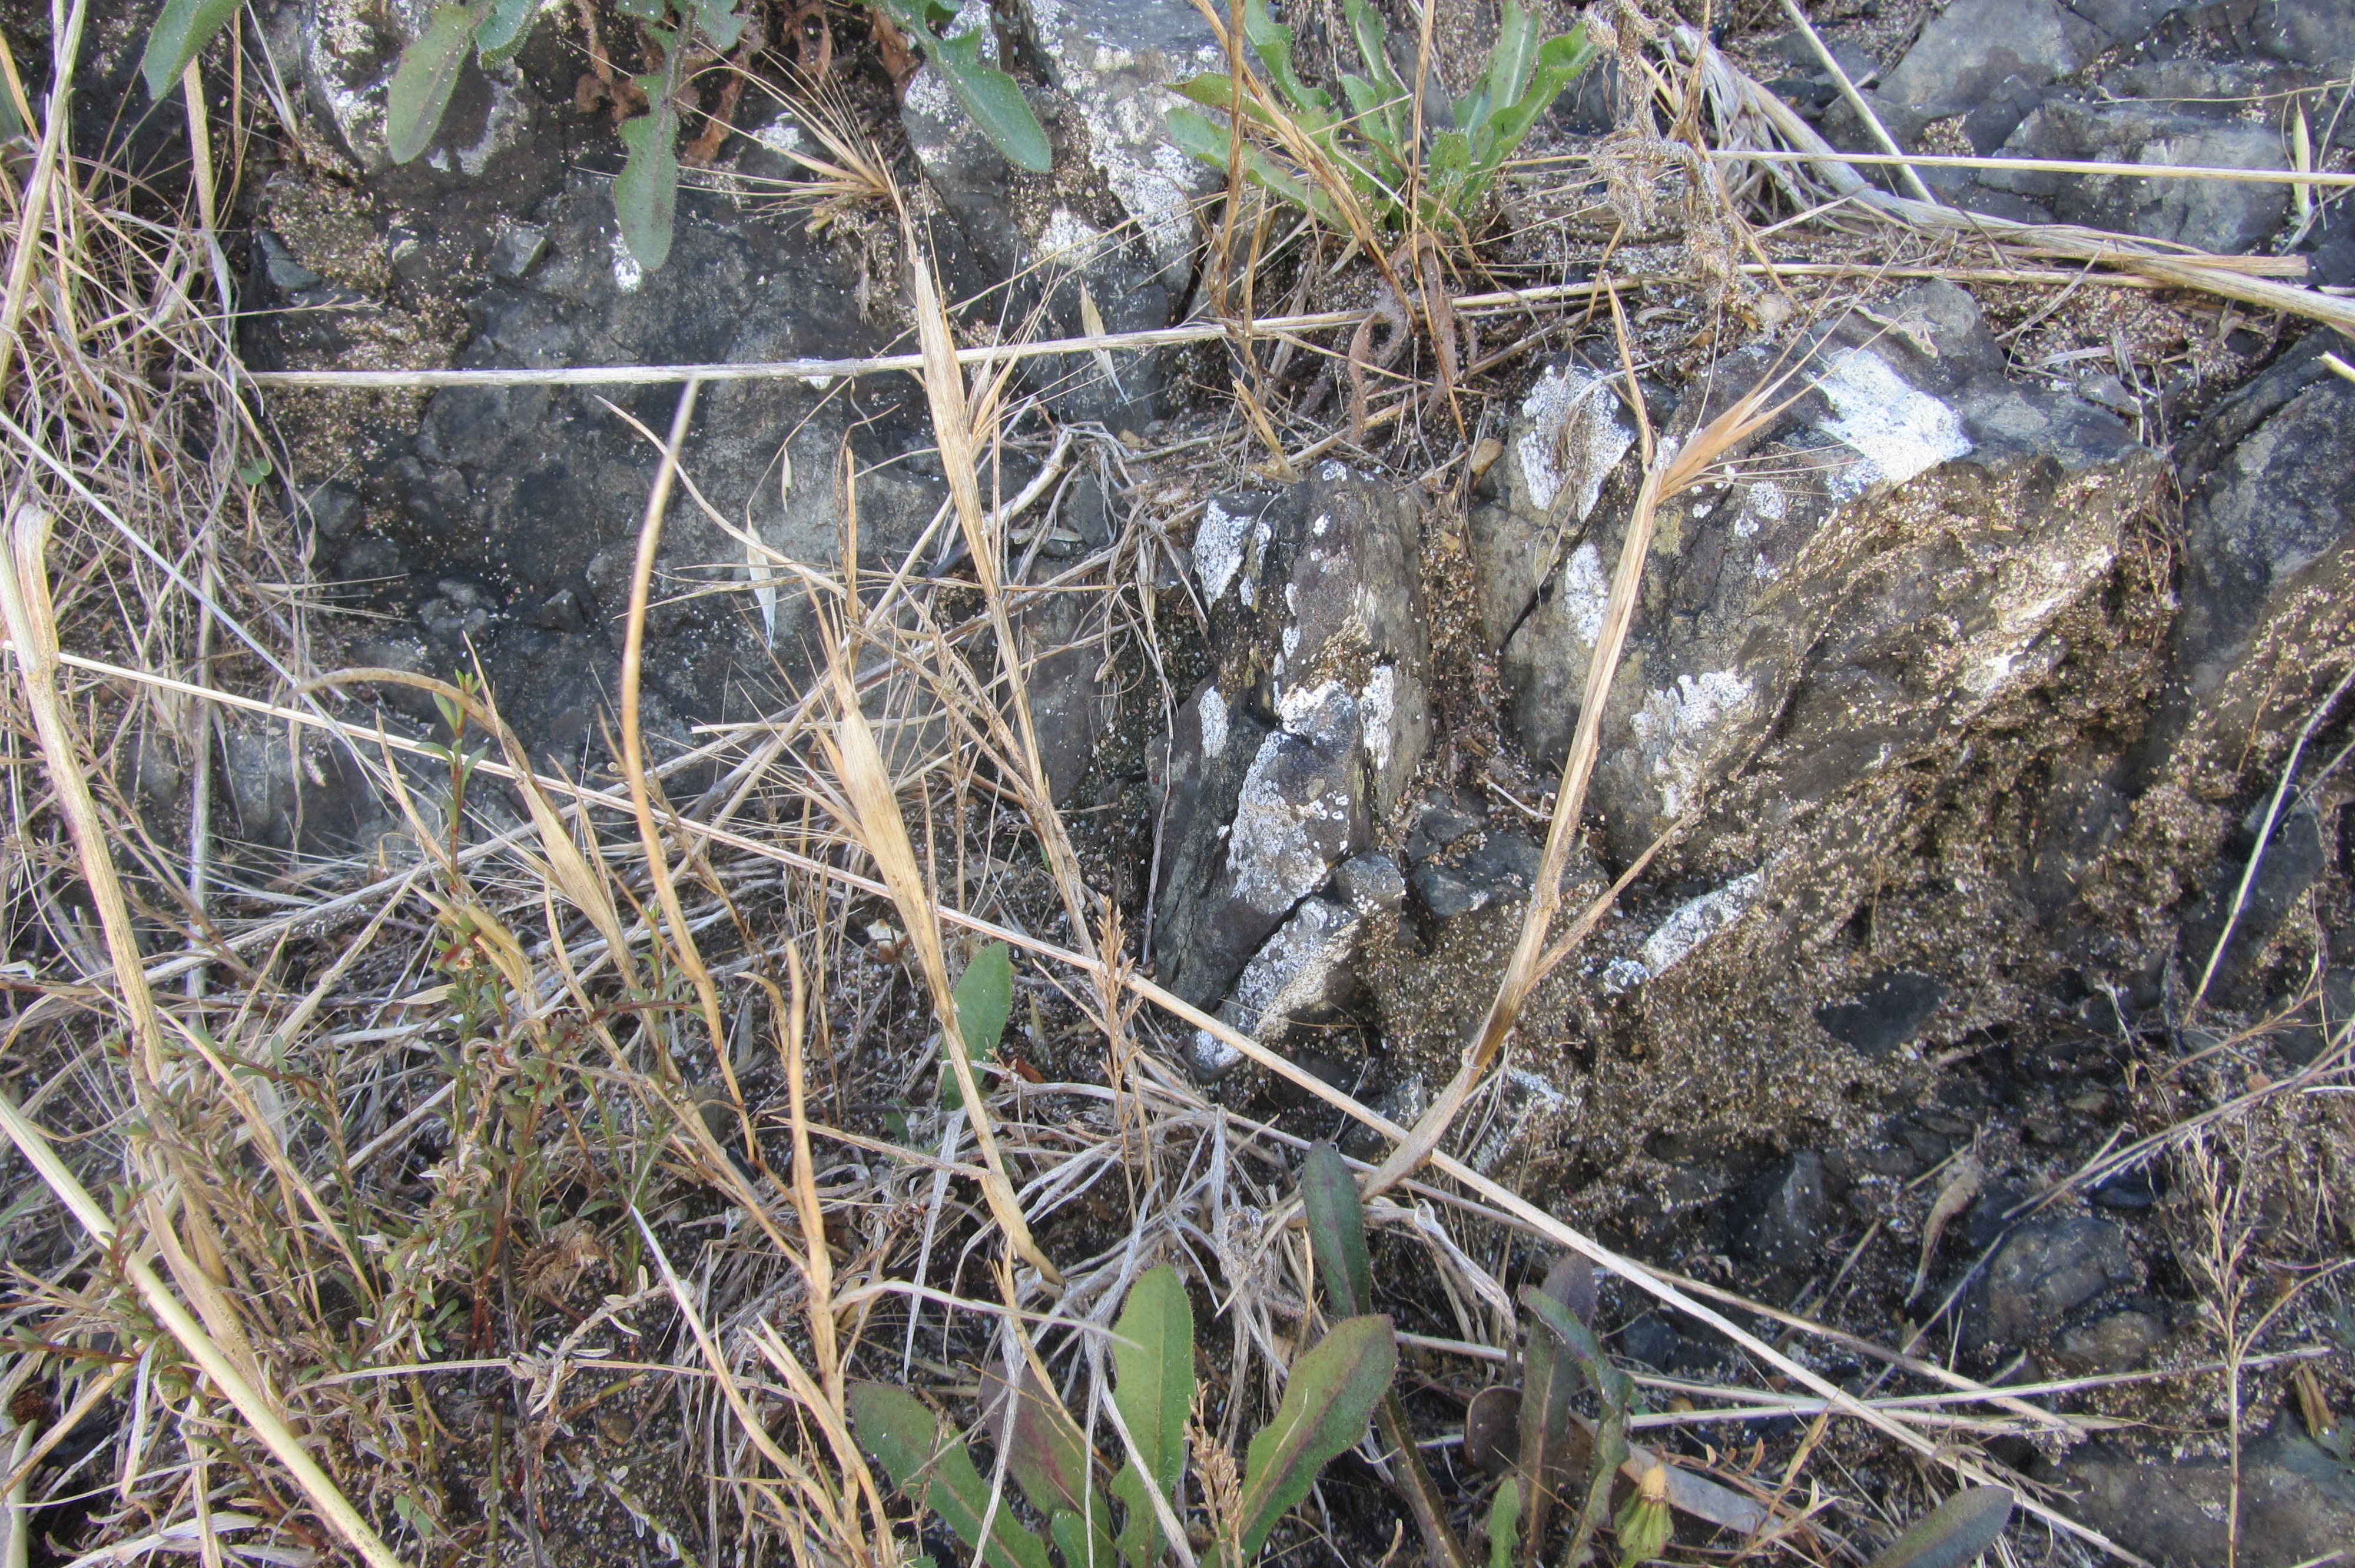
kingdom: Plantae
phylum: Tracheophyta
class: Liliopsida
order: Poales
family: Poaceae
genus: Hordeum
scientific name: Hordeum murinum
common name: Wall barley
